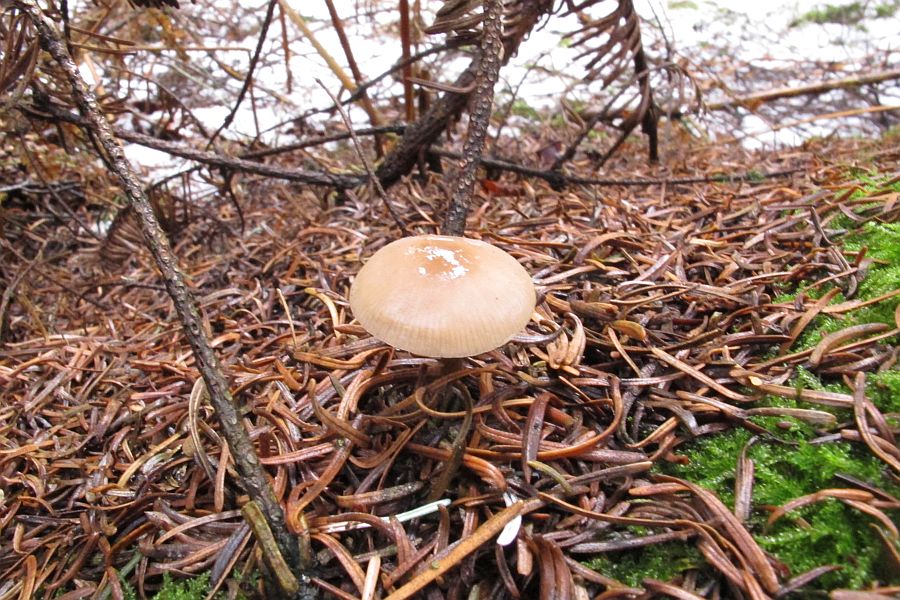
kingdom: Fungi
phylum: Basidiomycota
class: Agaricomycetes
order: Agaricales
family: Tricholomataceae
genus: Clitocybe
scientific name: Clitocybe metachroa
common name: grå tragthat
